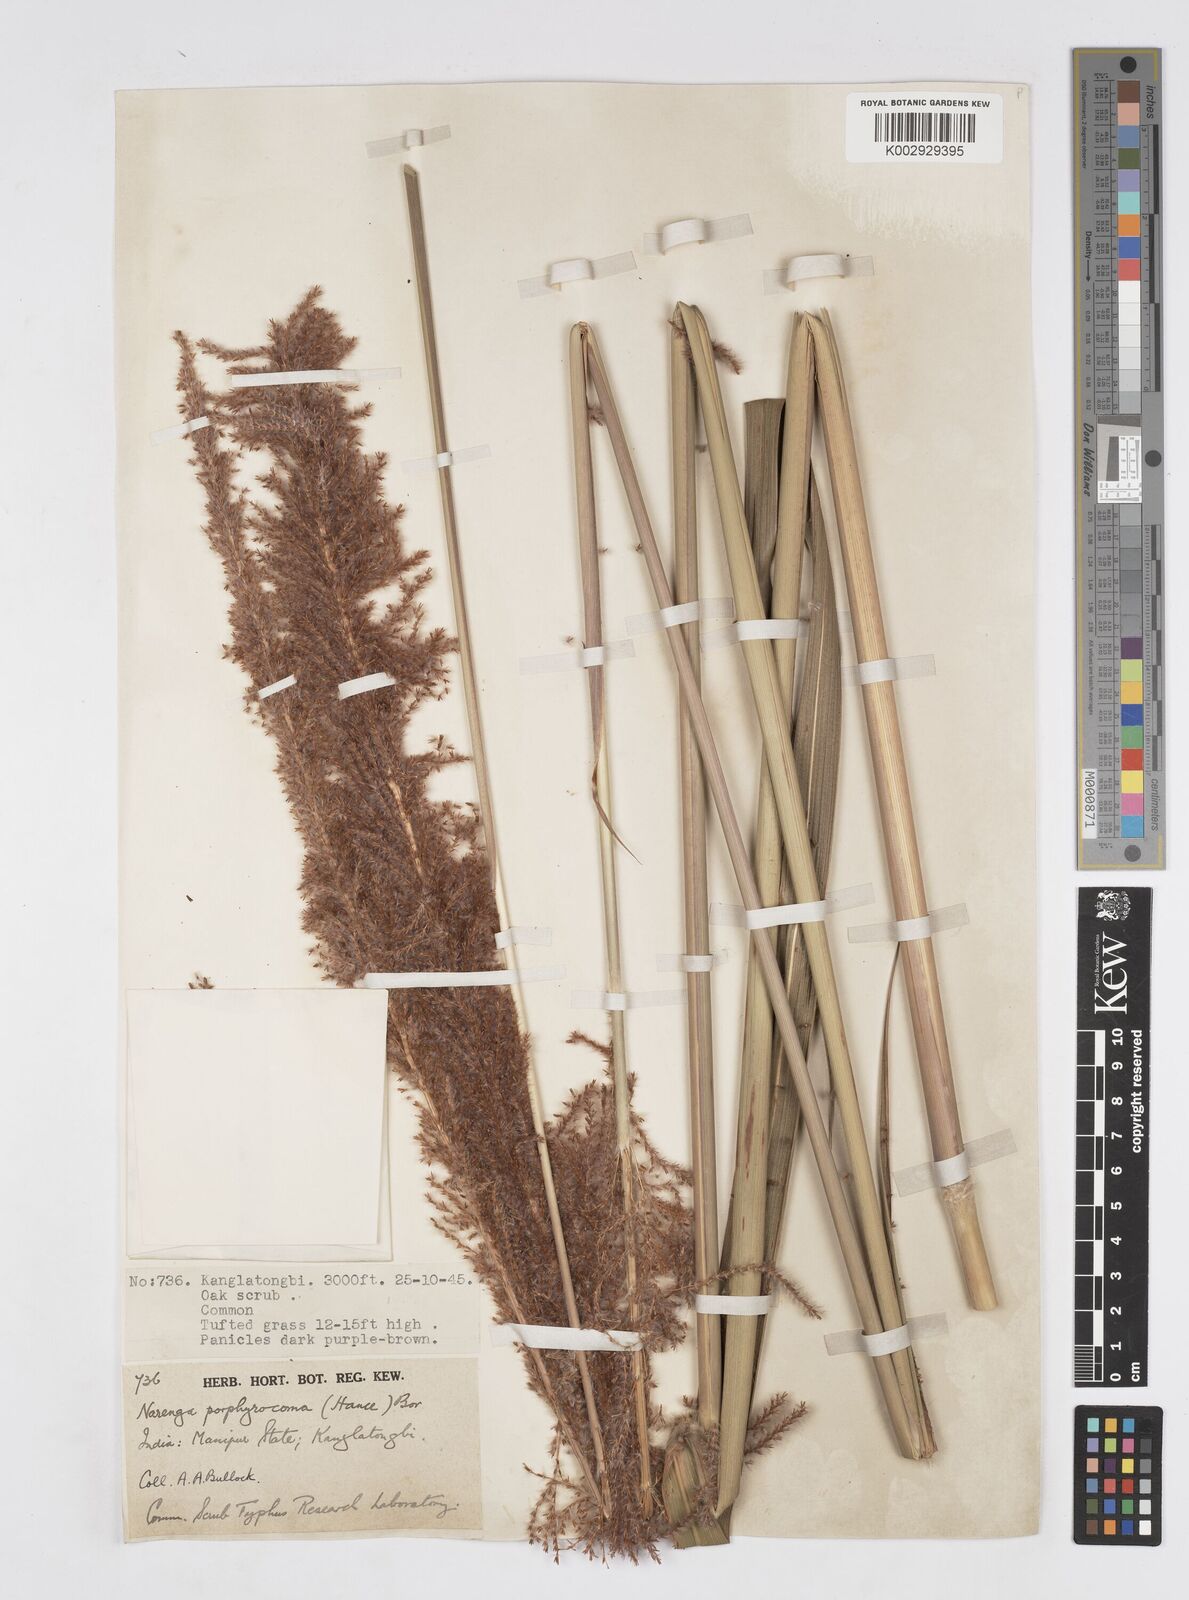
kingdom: Plantae
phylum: Tracheophyta
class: Liliopsida
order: Poales
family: Poaceae
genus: Narenga
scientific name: Narenga porphyrocoma
